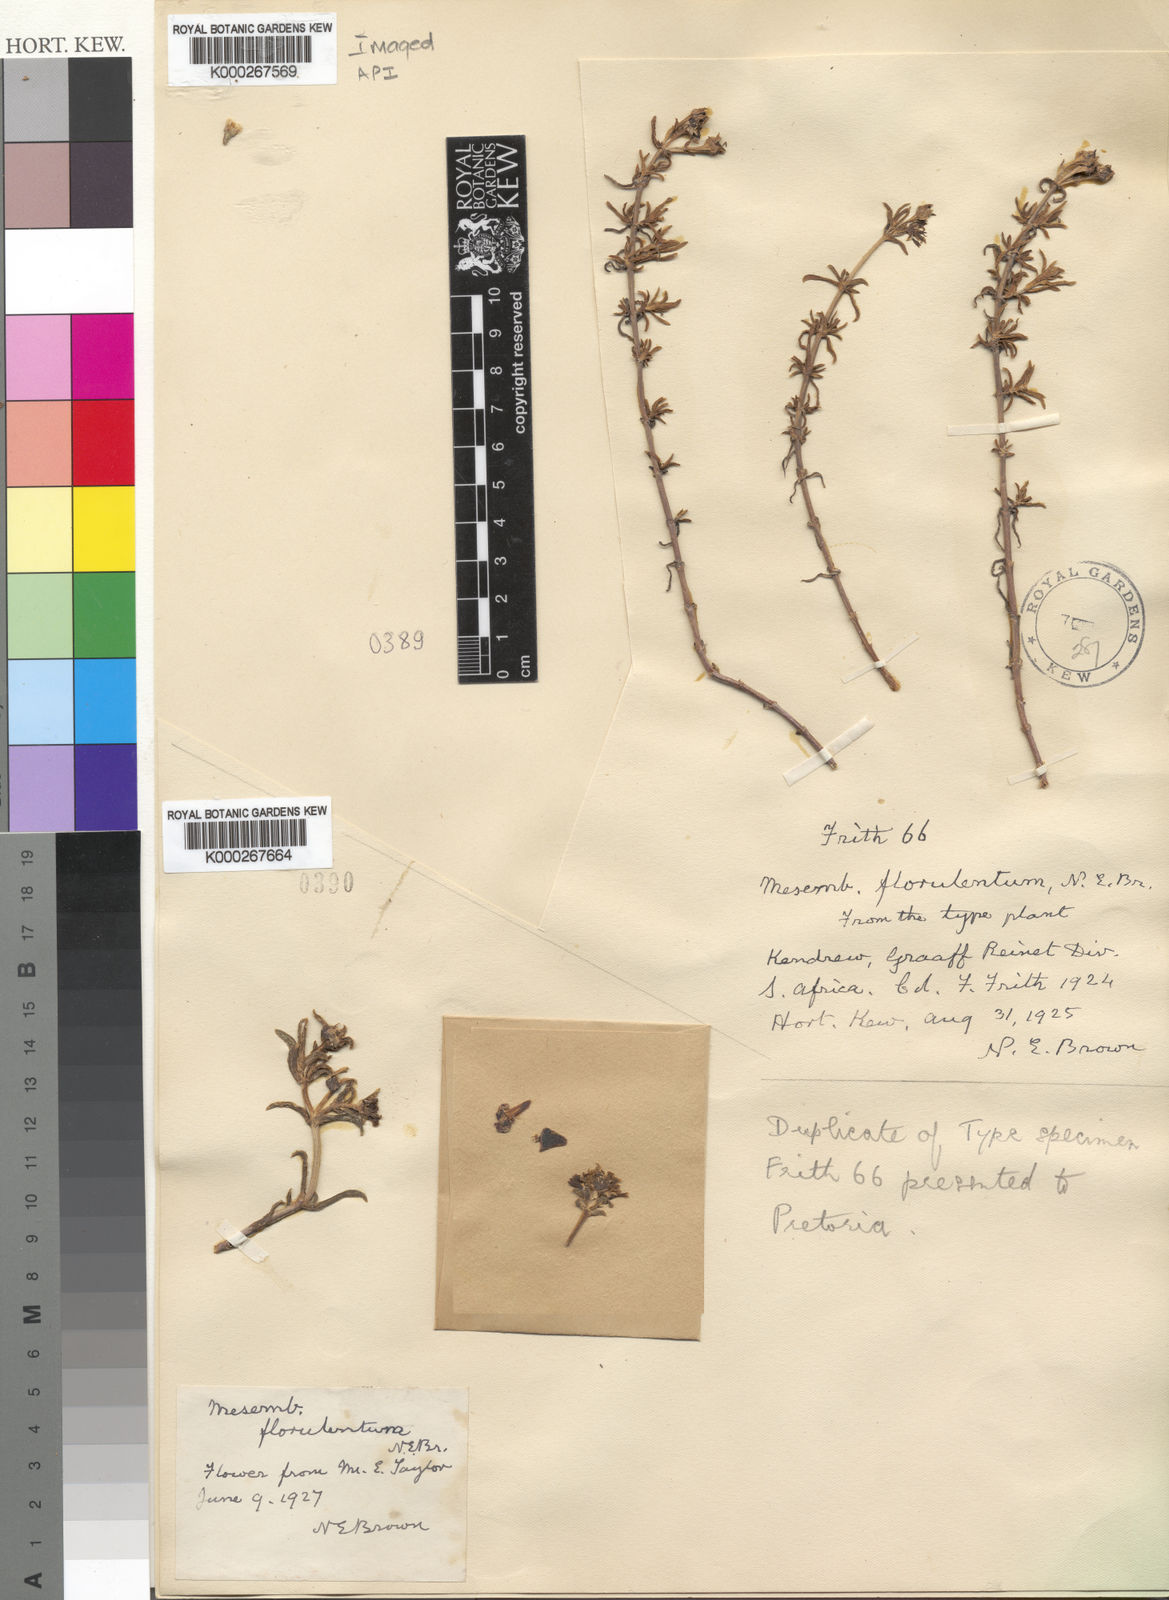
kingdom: Plantae
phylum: Tracheophyta
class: Magnoliopsida
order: Caryophyllales
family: Aizoaceae
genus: Mesembryanthemum
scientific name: Mesembryanthemum
